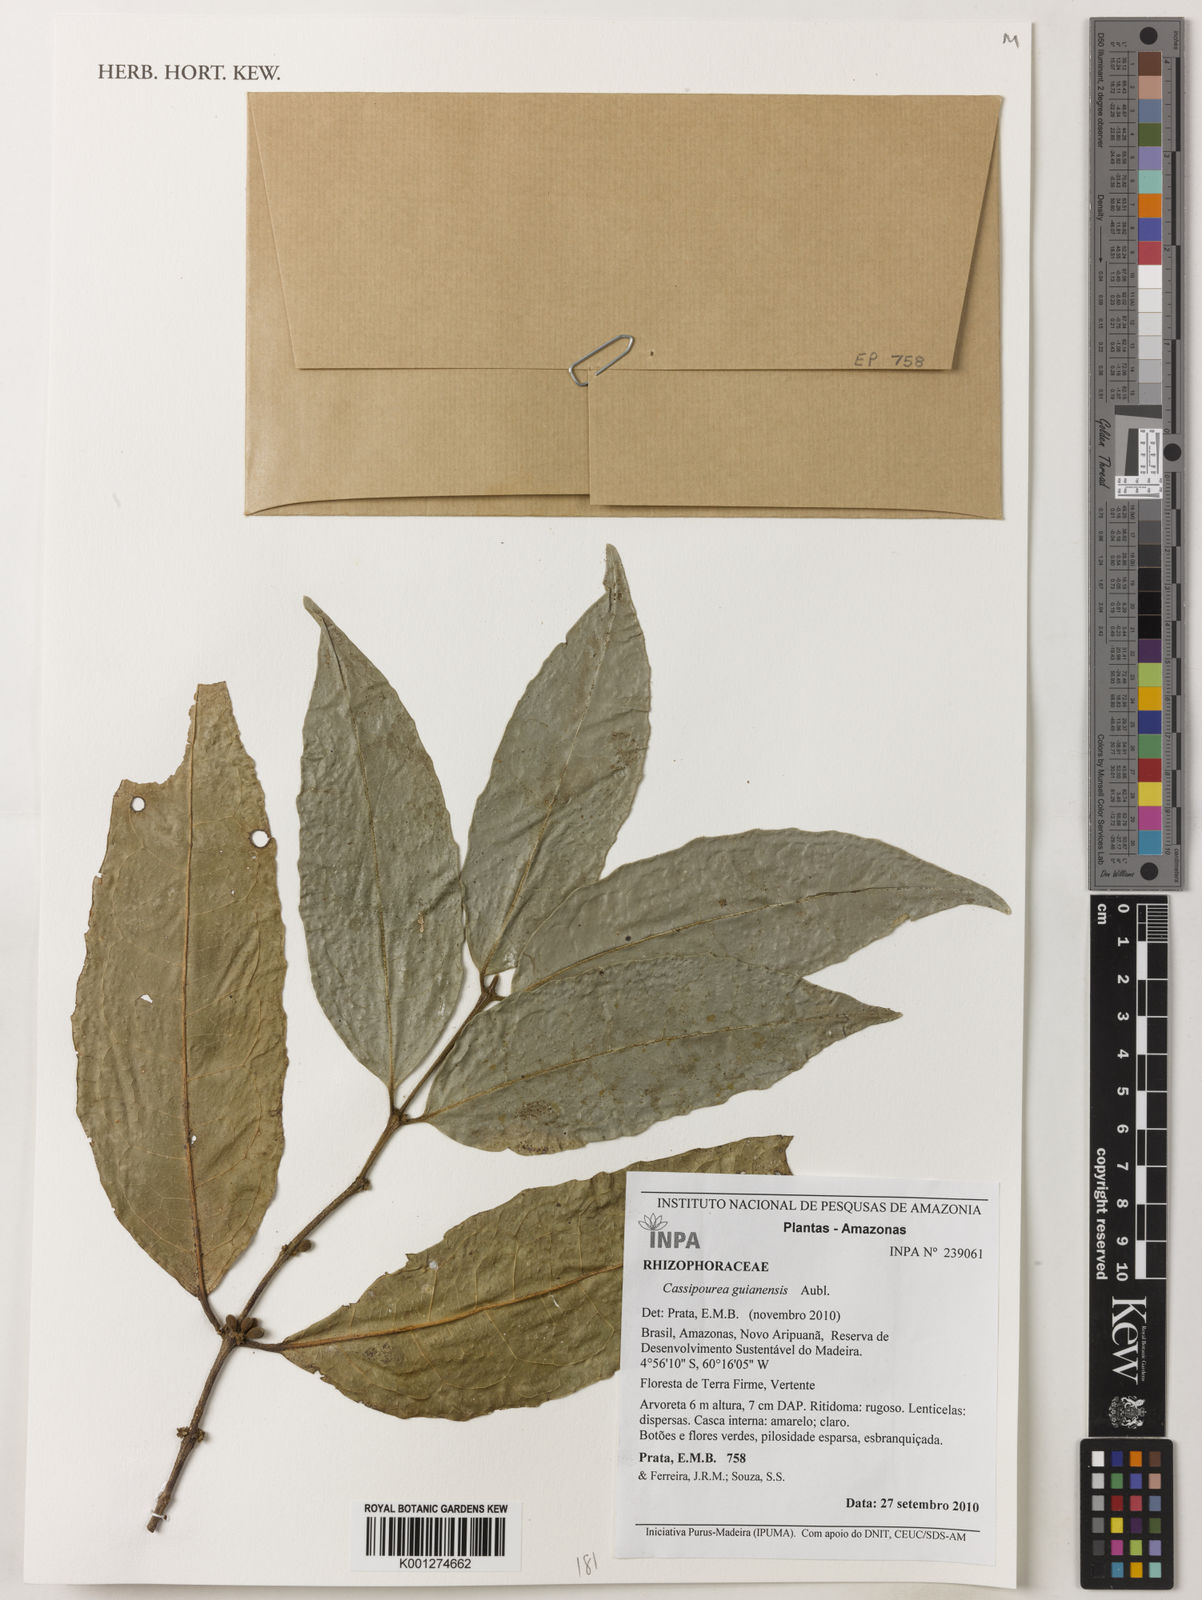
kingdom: Plantae
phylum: Tracheophyta
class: Magnoliopsida
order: Malpighiales
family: Rhizophoraceae
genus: Cassipourea
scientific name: Cassipourea guianensis
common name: Bastard waterwood
